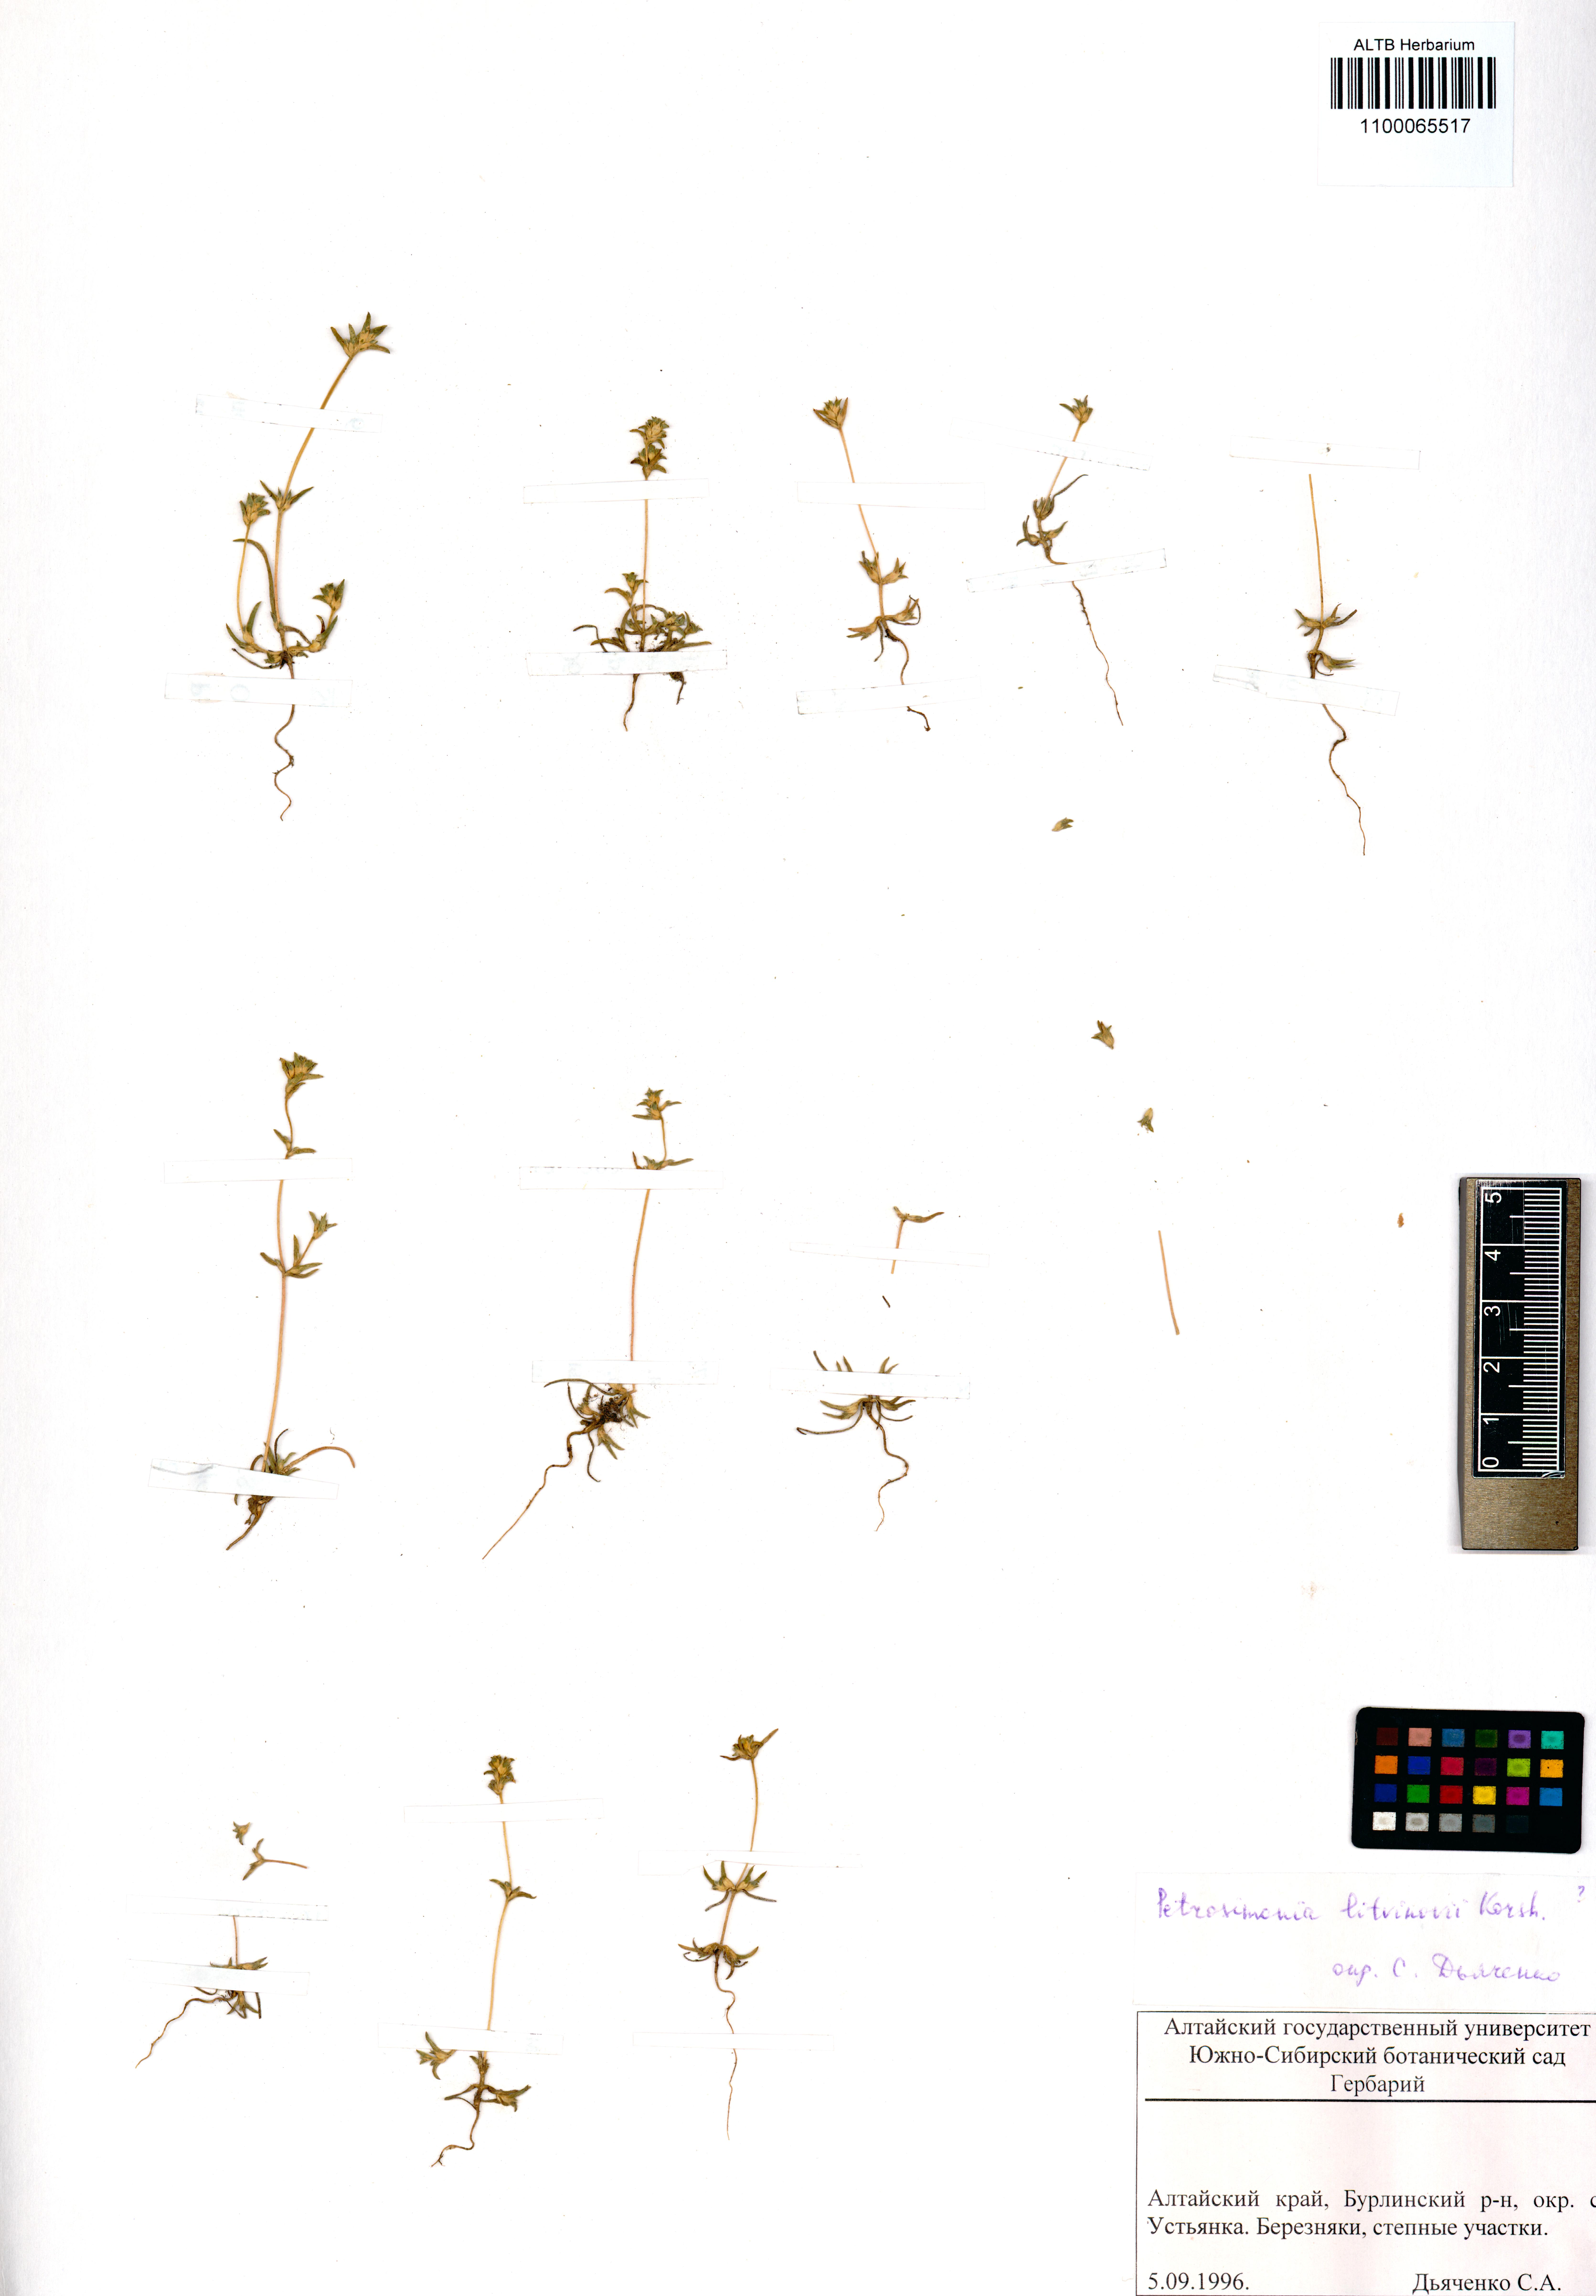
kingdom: Plantae
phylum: Tracheophyta
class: Magnoliopsida
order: Caryophyllales
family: Amaranthaceae
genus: Petrosimonia
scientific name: Petrosimonia litvinowi
